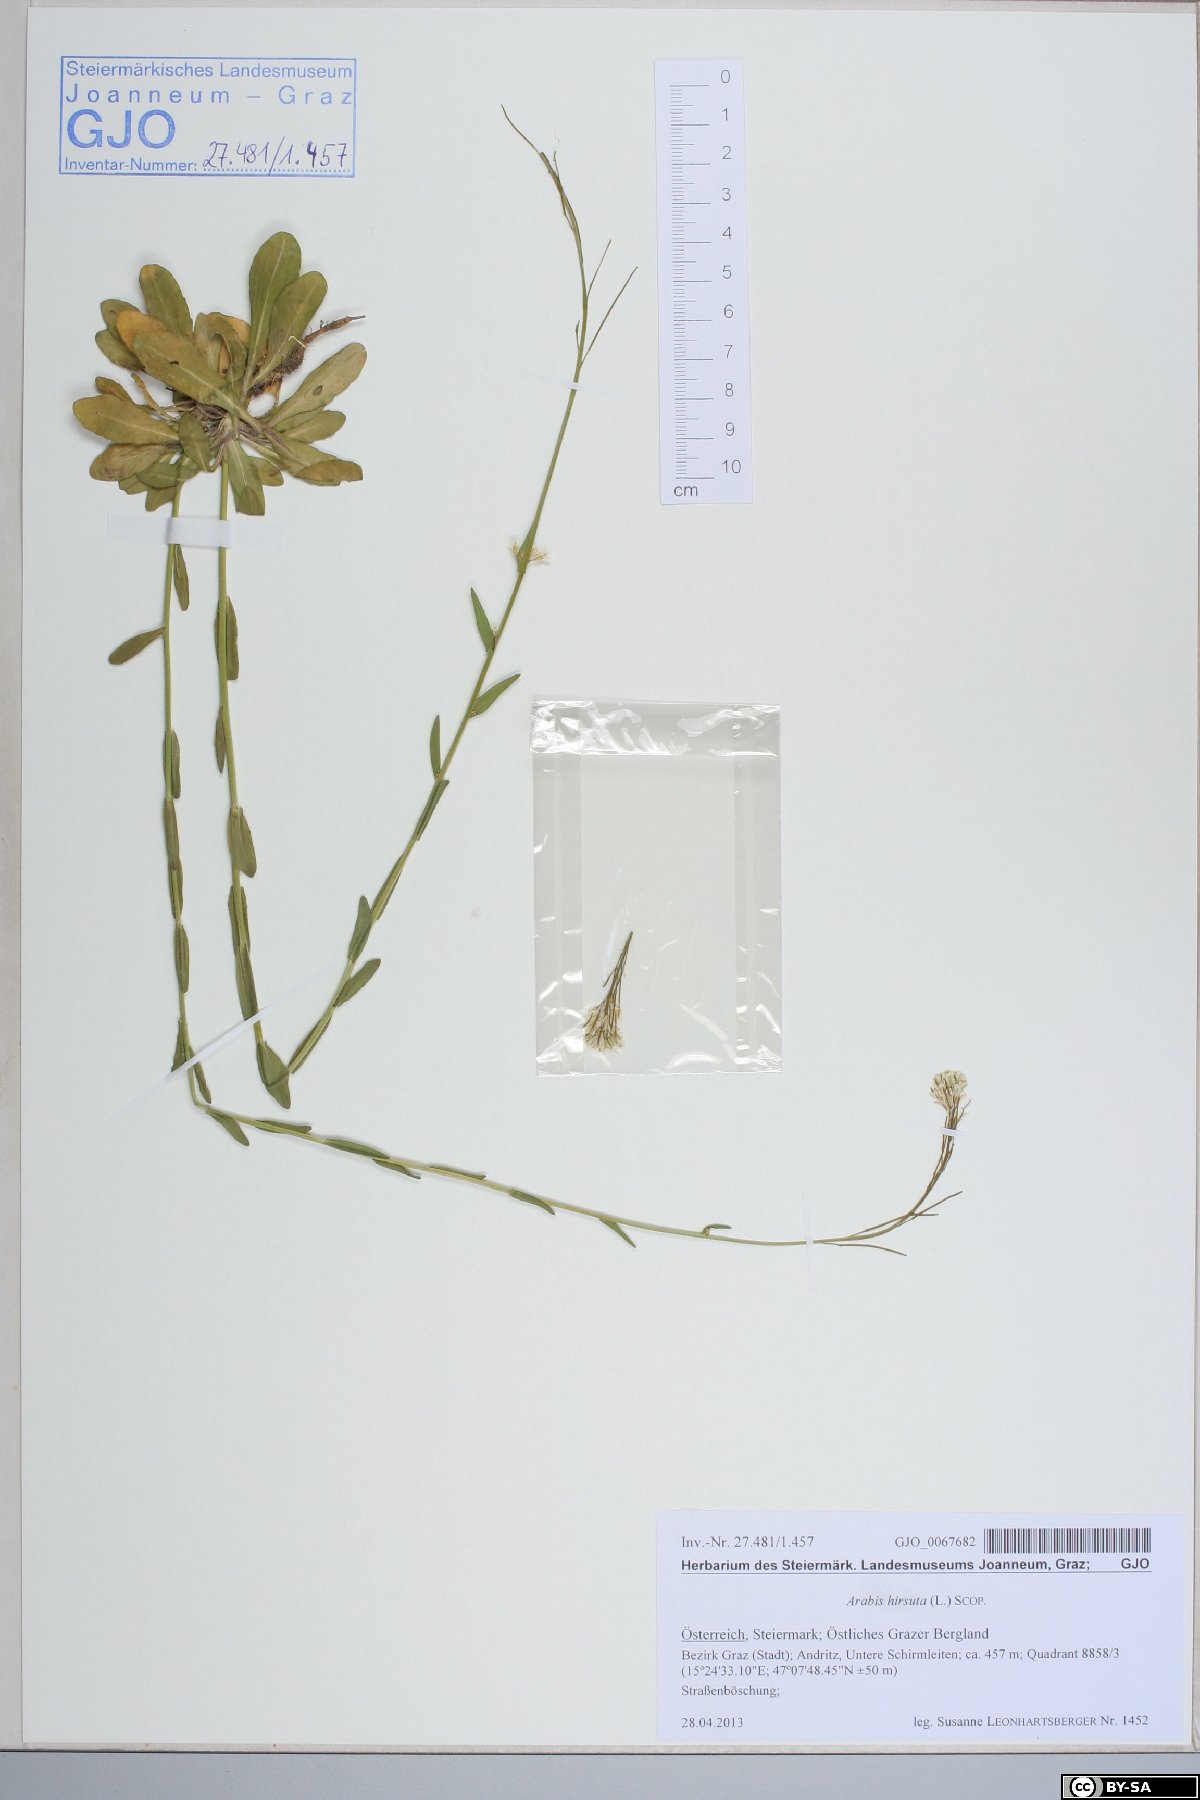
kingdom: Plantae
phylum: Tracheophyta
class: Magnoliopsida
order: Brassicales
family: Brassicaceae
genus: Arabis
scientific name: Arabis hirsuta
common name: Hairy rock-cress
